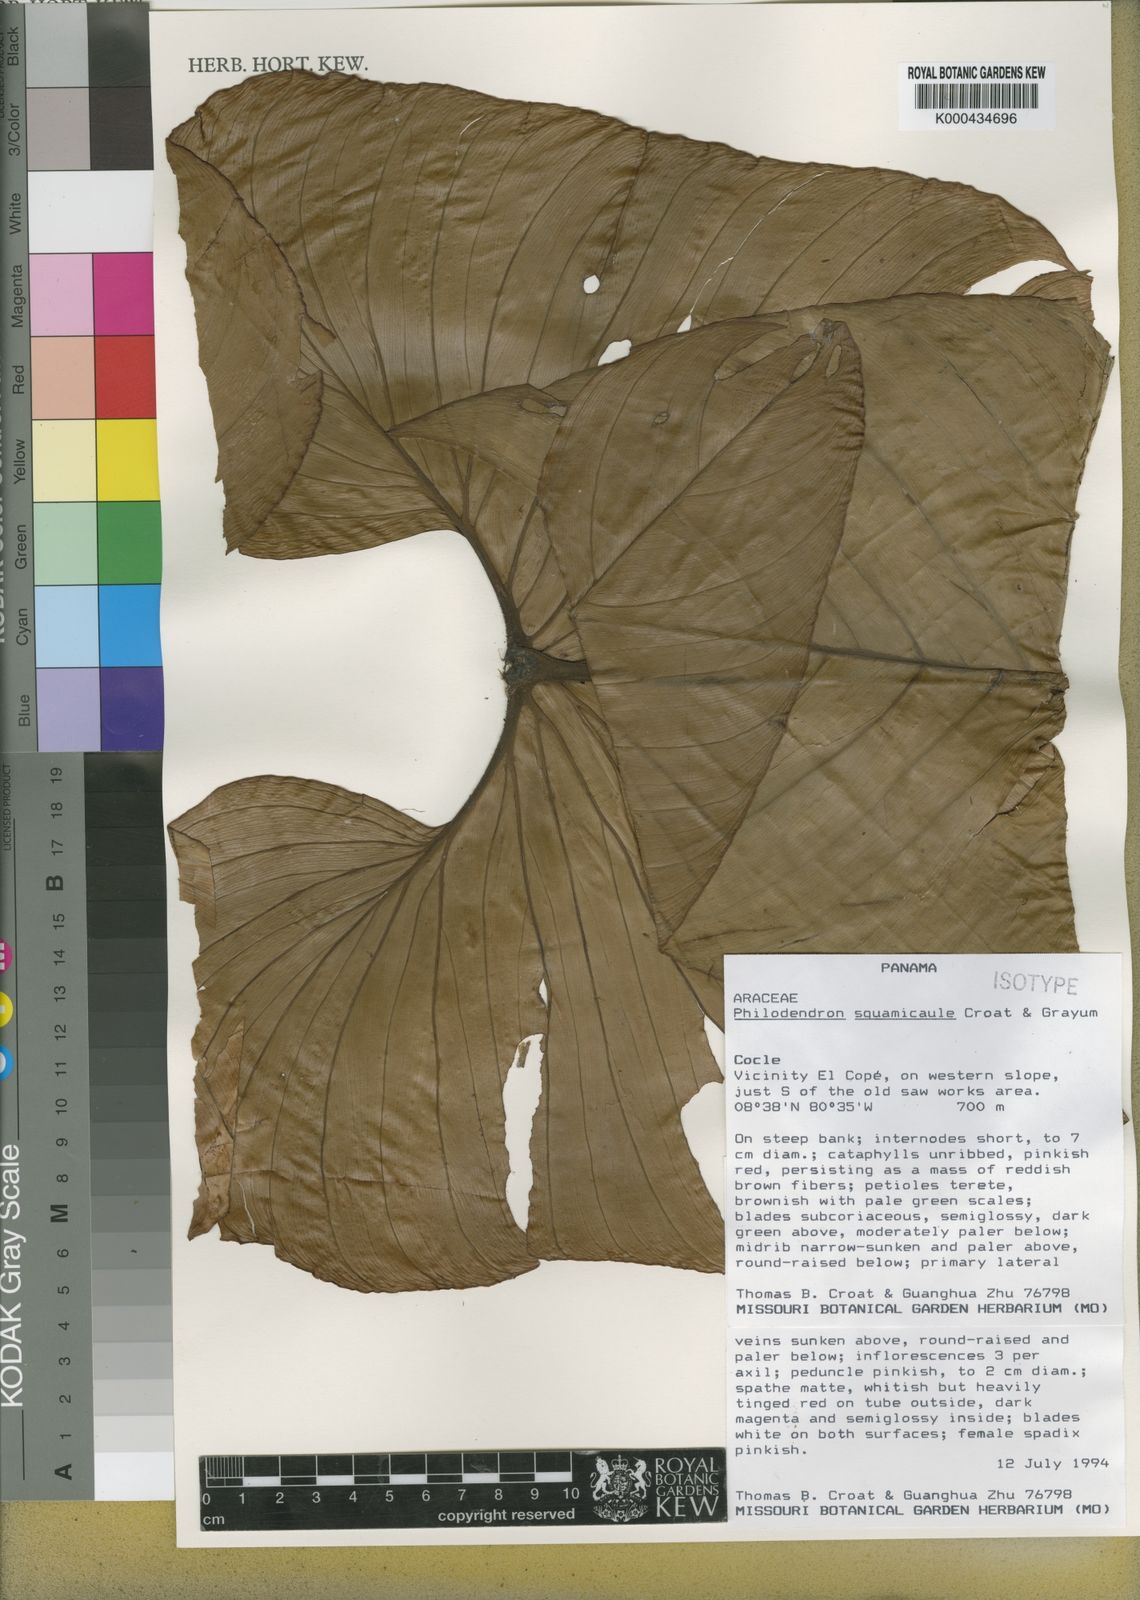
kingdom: Plantae
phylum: Tracheophyta
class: Liliopsida
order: Alismatales
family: Araceae
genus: Philodendron
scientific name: Philodendron squamicaule
